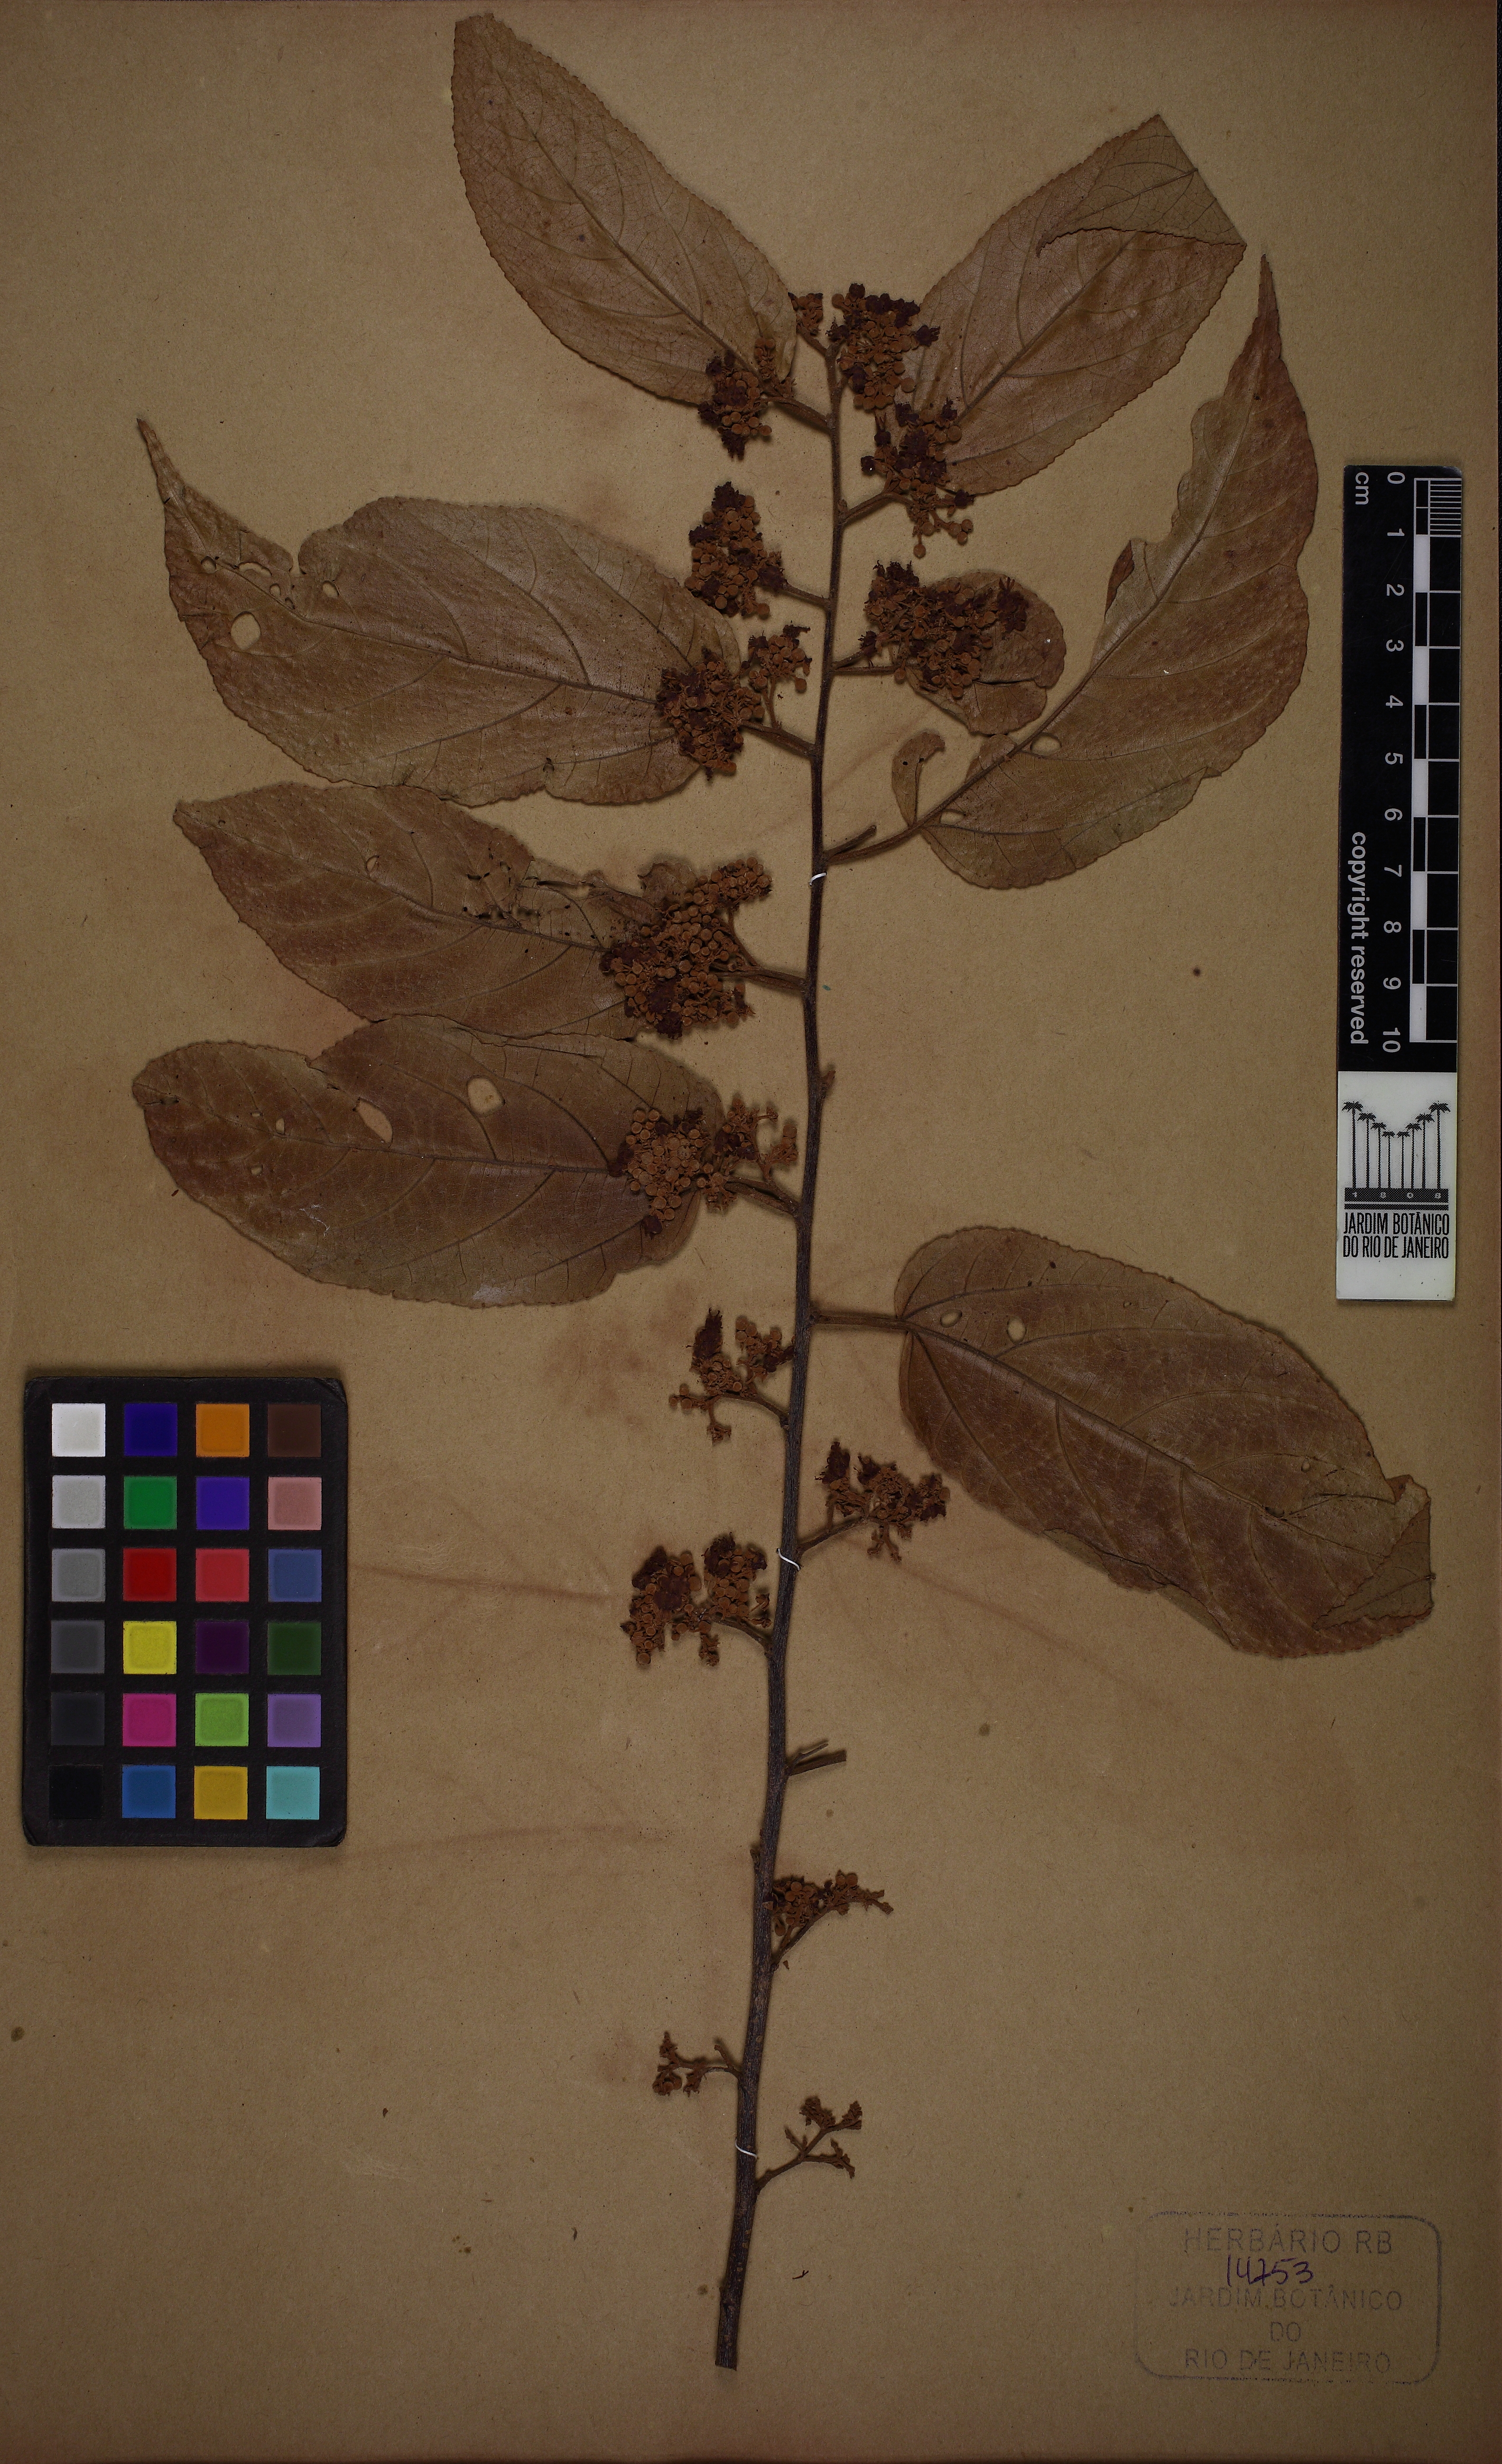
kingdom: Plantae
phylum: Tracheophyta
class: Magnoliopsida
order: Malvales
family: Malvaceae
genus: Guazuma
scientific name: Guazuma ulmifolia
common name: Bastard-cedar
